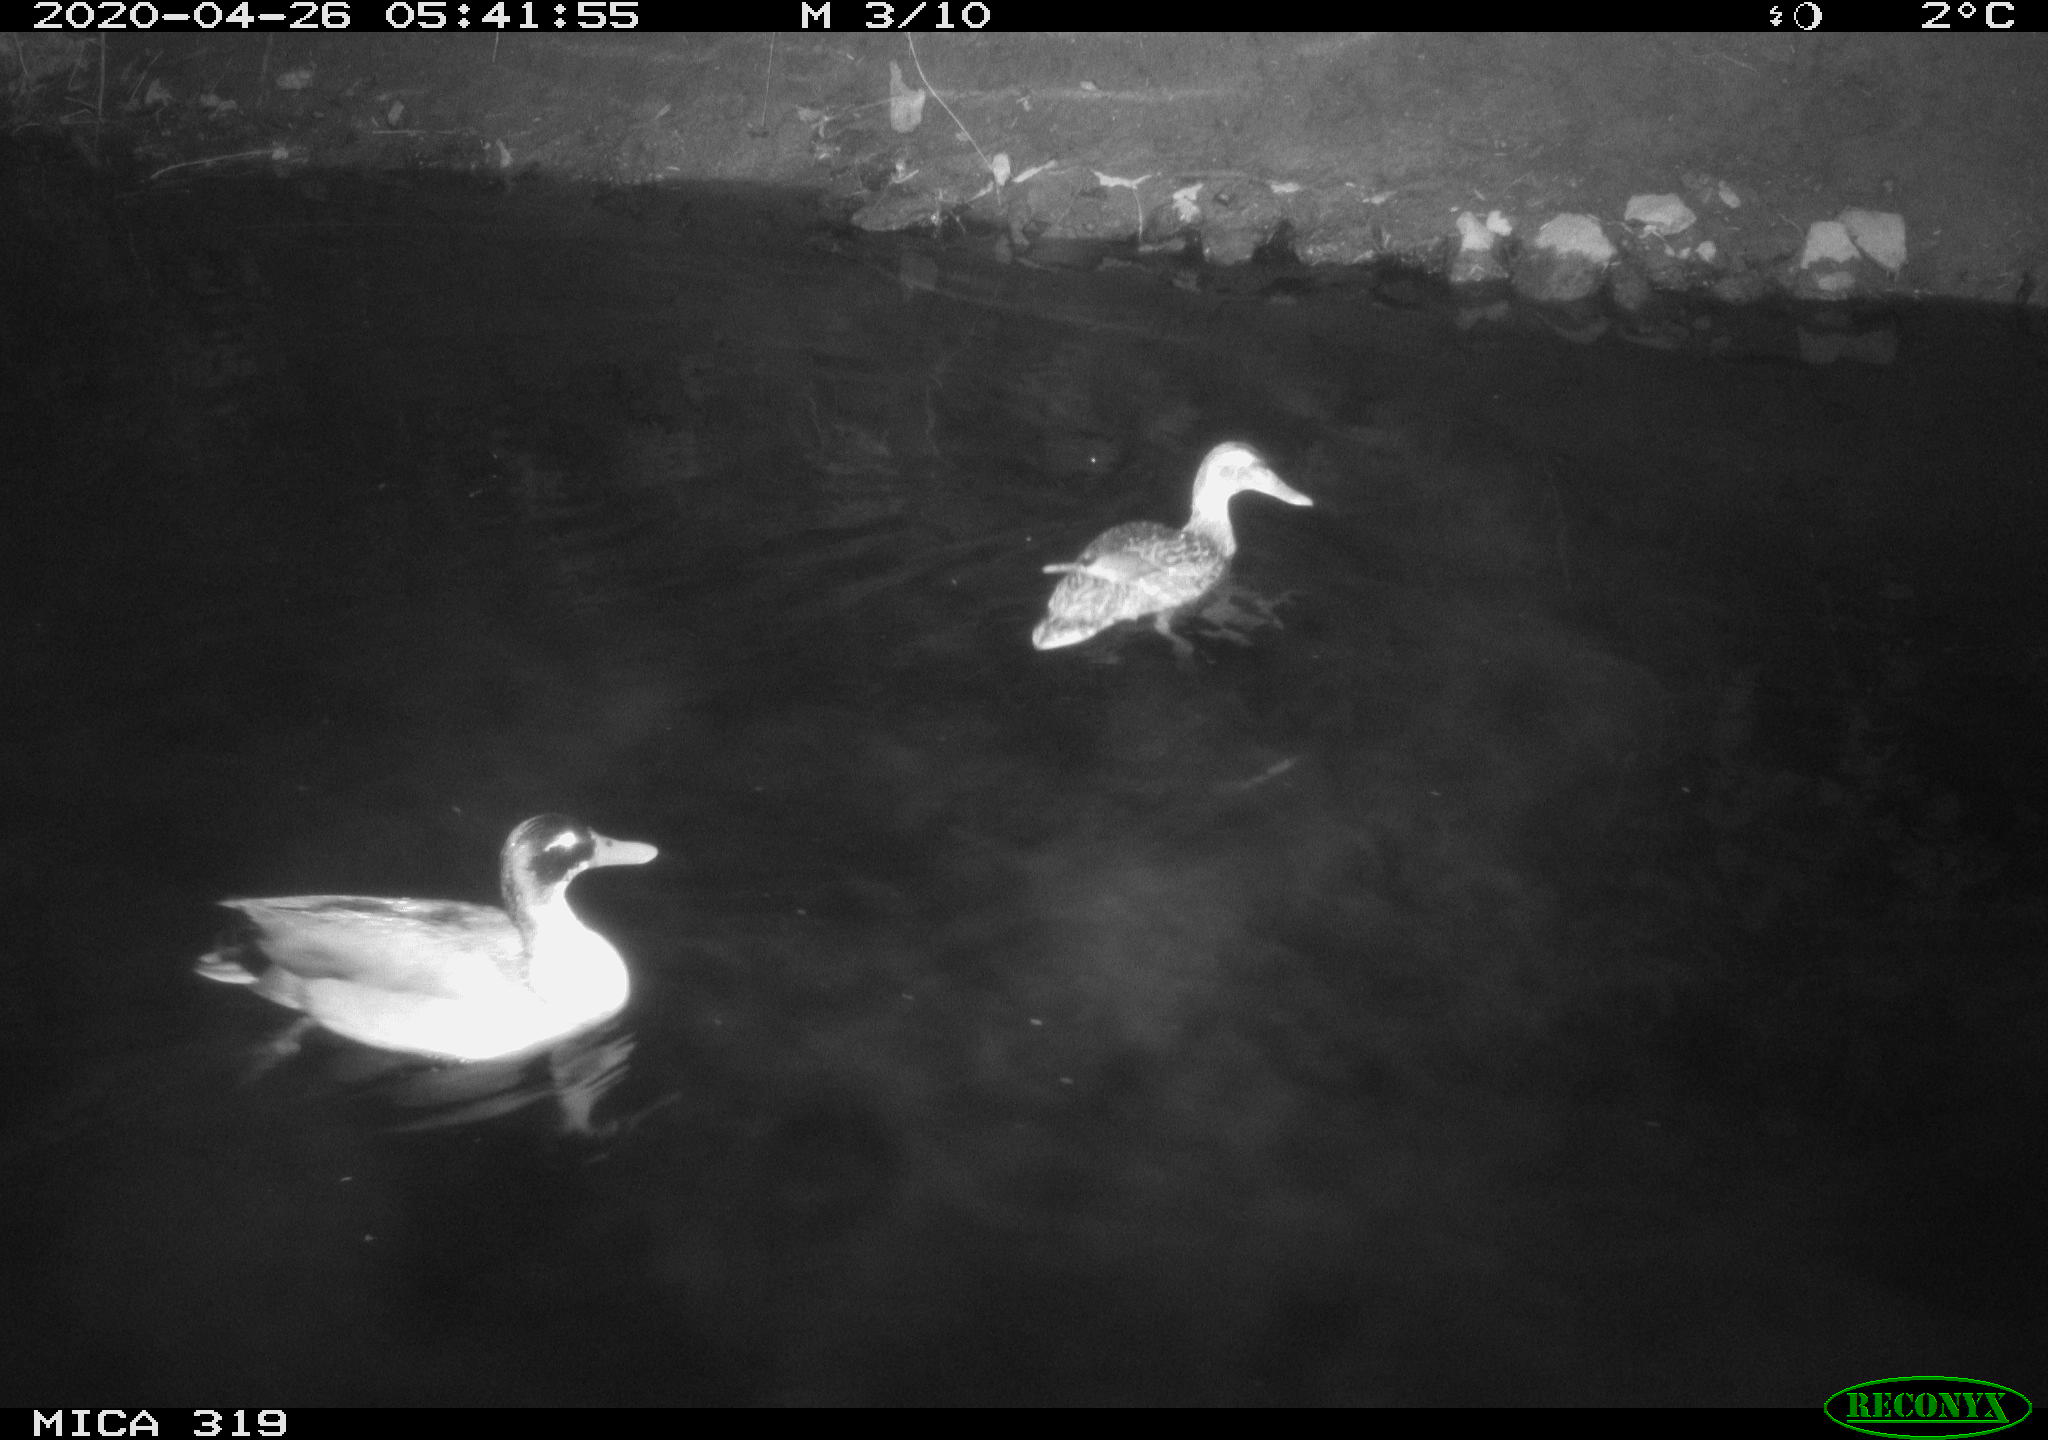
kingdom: Animalia
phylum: Chordata
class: Aves
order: Anseriformes
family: Anatidae
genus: Anas
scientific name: Anas platyrhynchos
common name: Mallard
